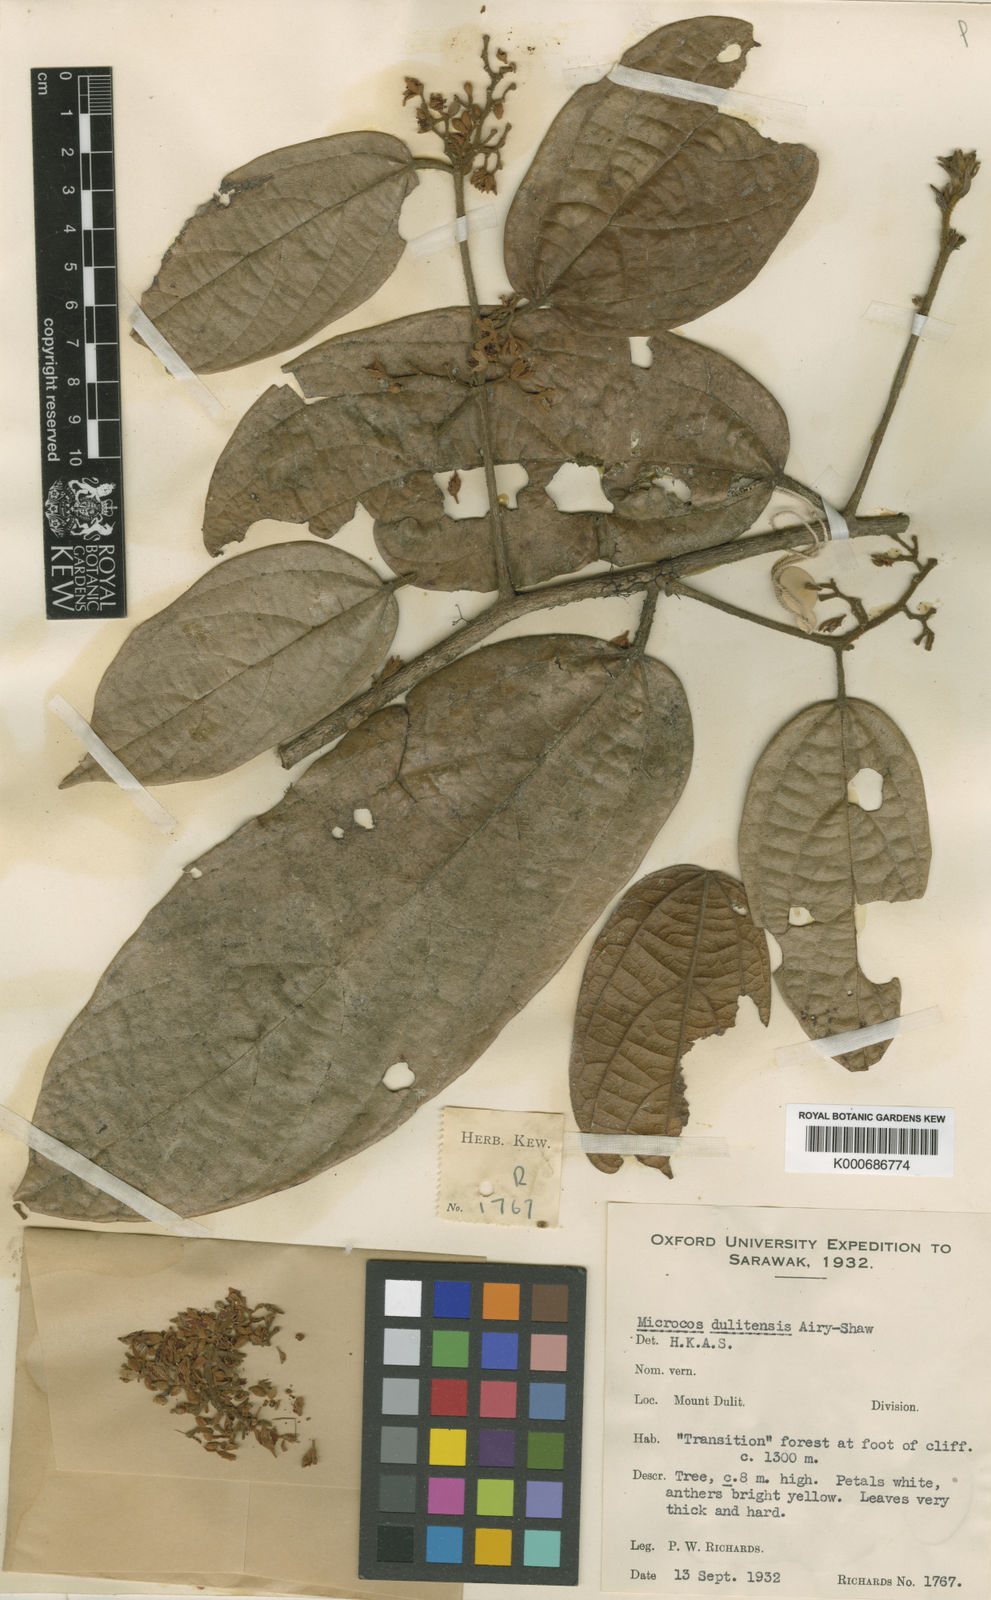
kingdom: Plantae
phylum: Tracheophyta
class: Magnoliopsida
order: Malvales
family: Malvaceae
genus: Microcos
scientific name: Microcos dulitensis
